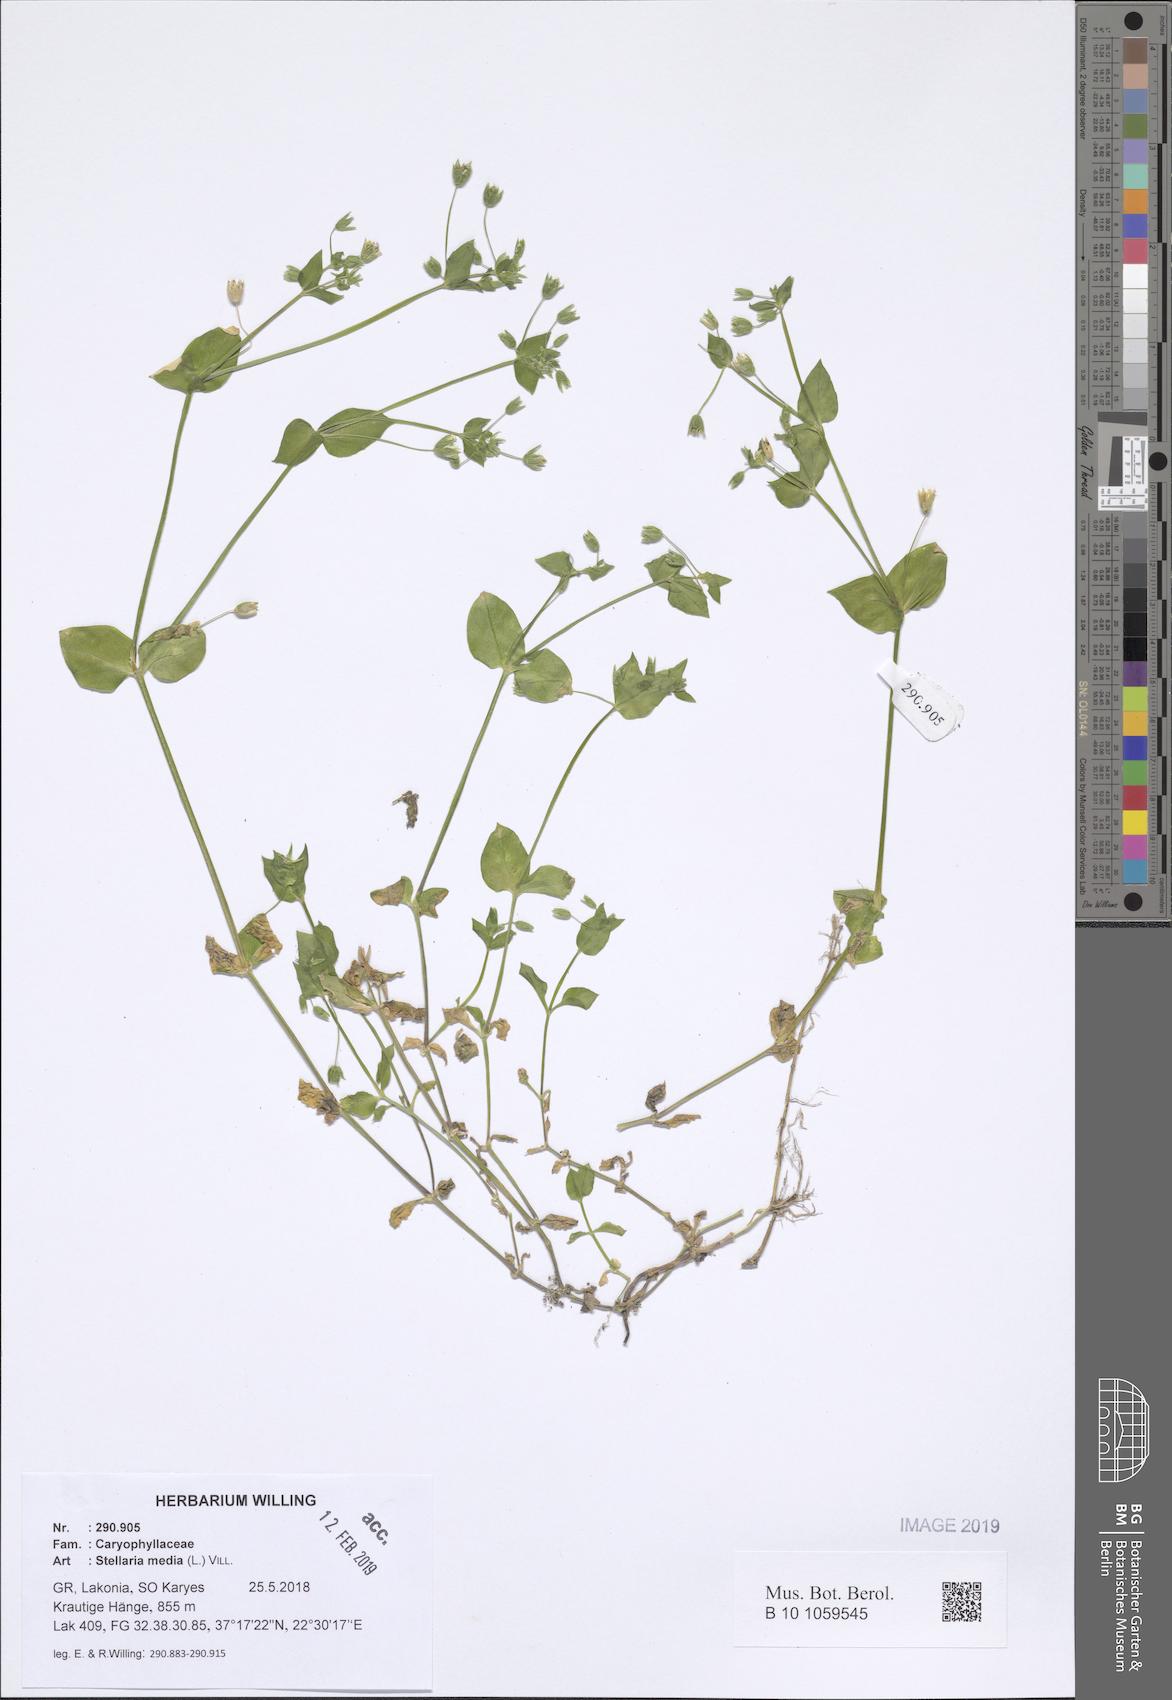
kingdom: Plantae
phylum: Tracheophyta
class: Magnoliopsida
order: Caryophyllales
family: Caryophyllaceae
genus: Stellaria
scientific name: Stellaria media
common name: Common chickweed
